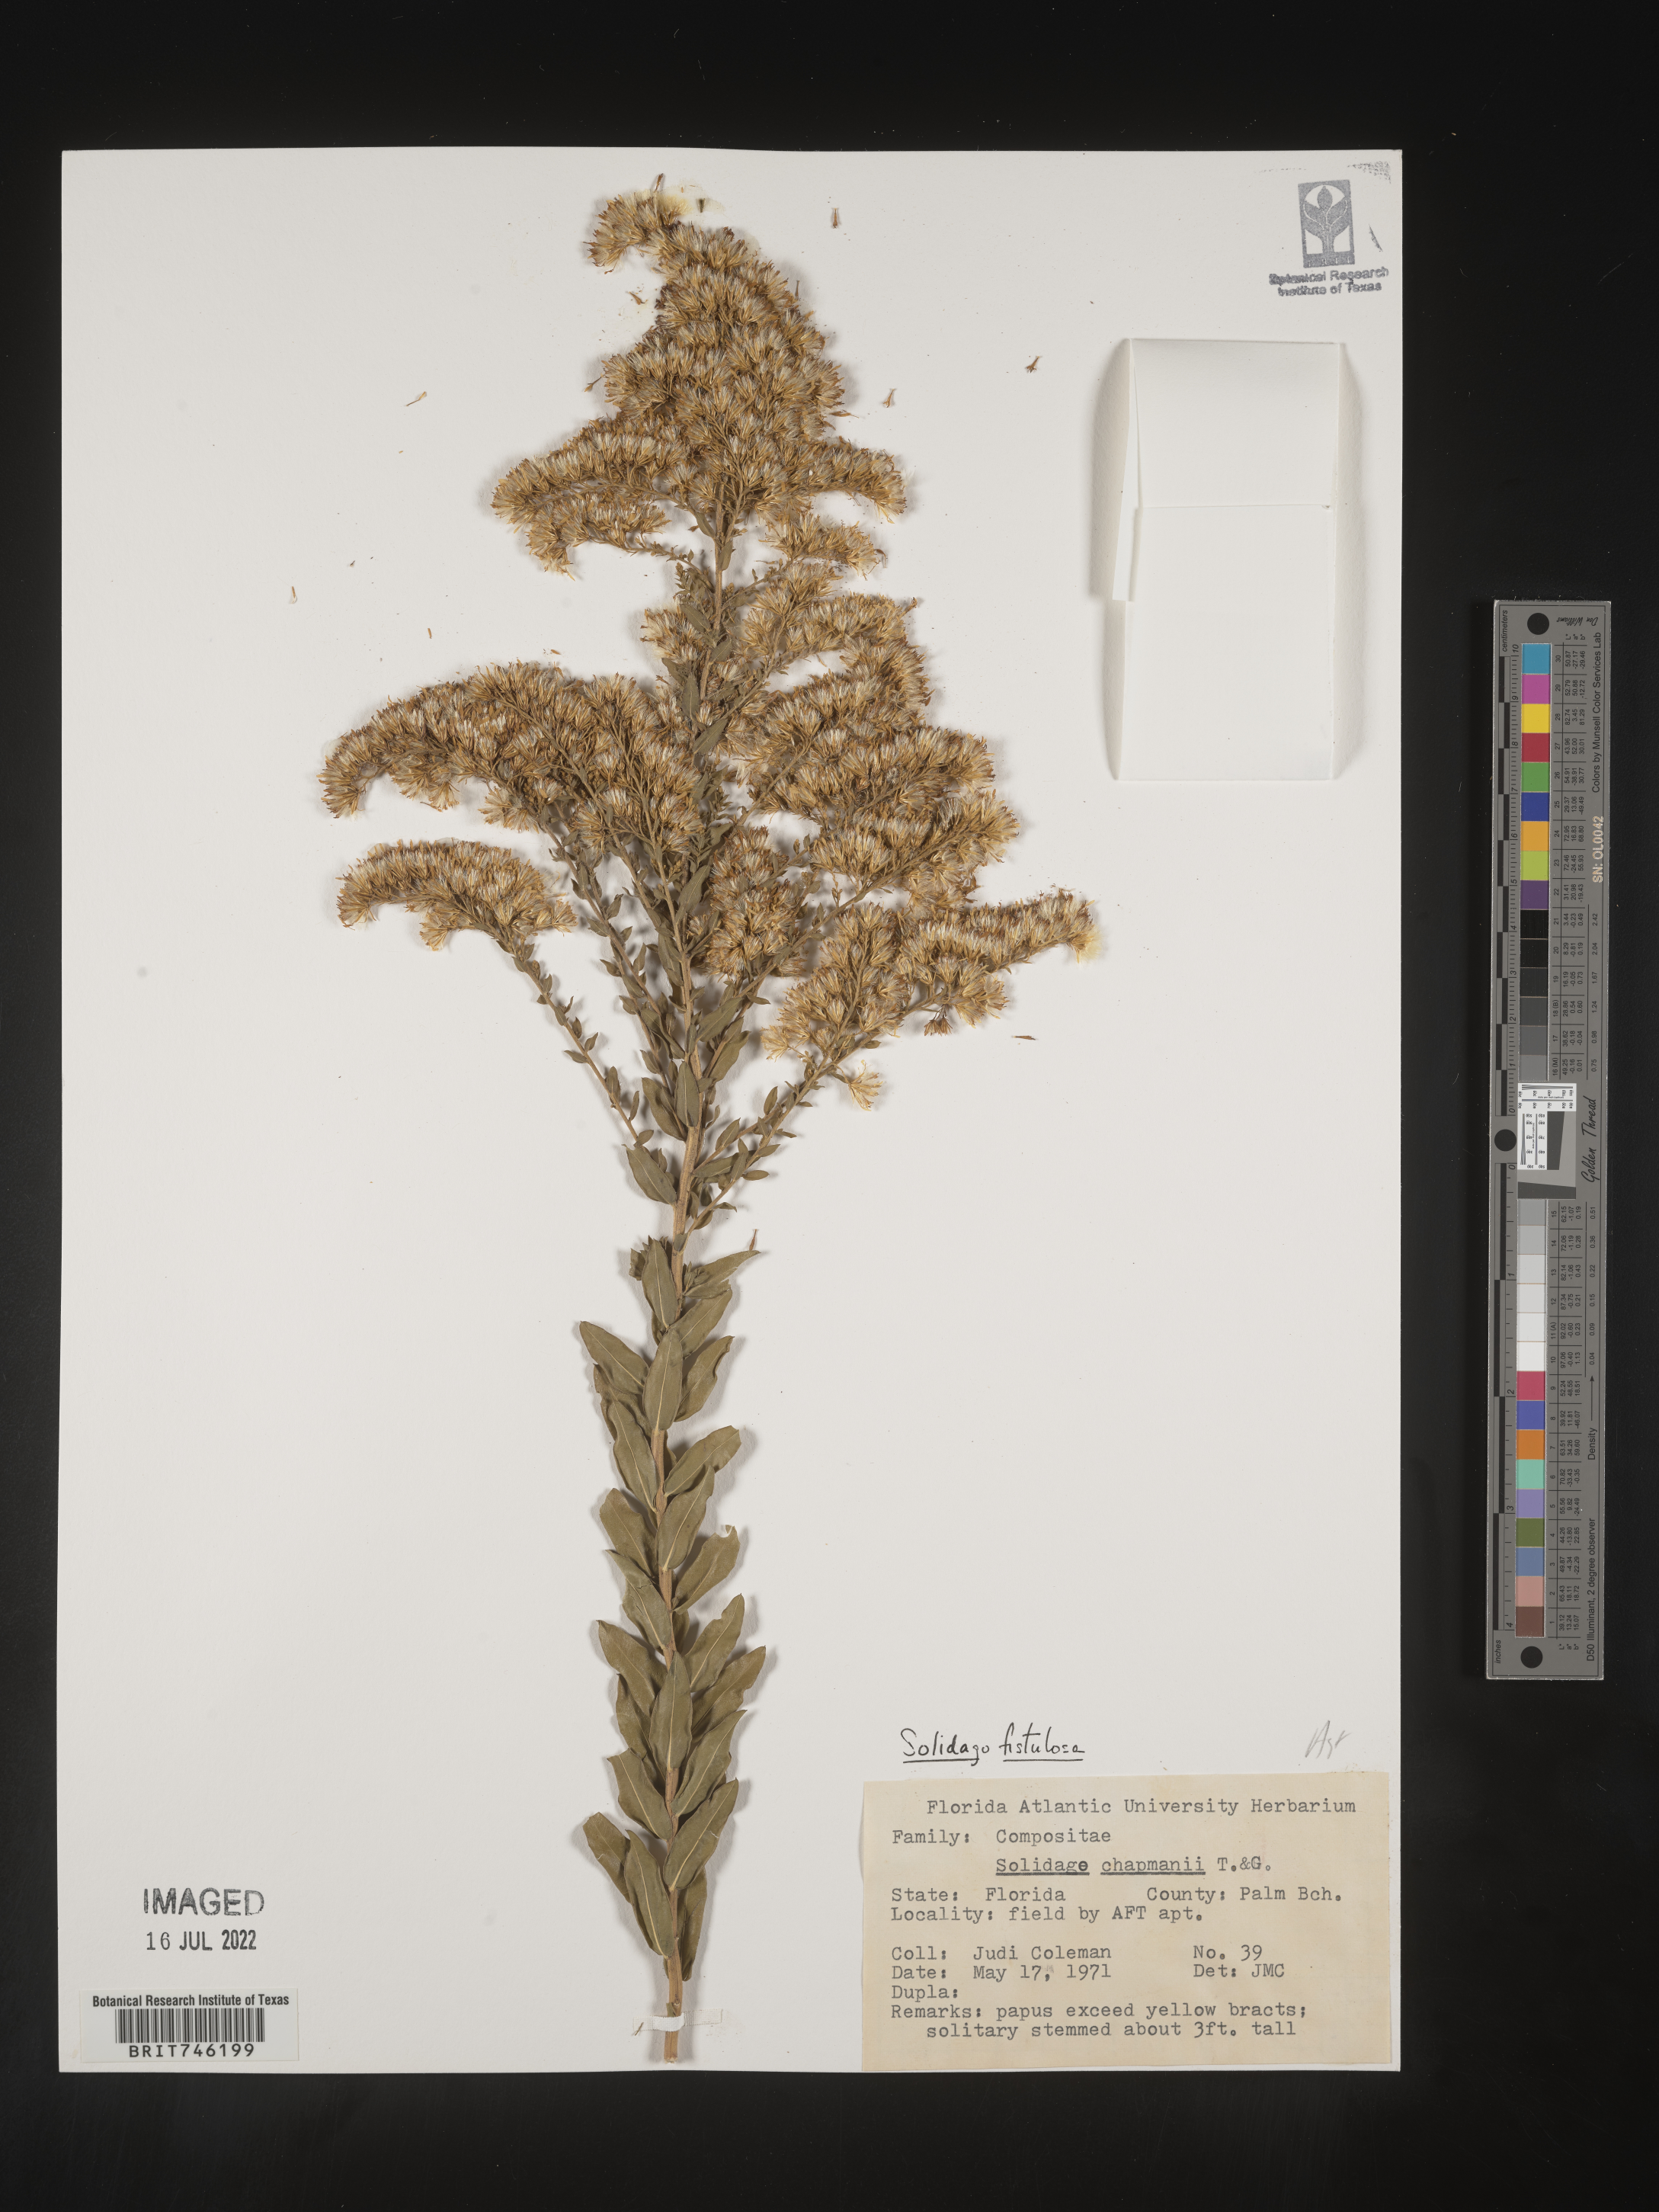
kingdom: Plantae
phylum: Tracheophyta
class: Magnoliopsida
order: Asterales
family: Asteraceae
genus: Solidago
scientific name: Solidago fistulosa
